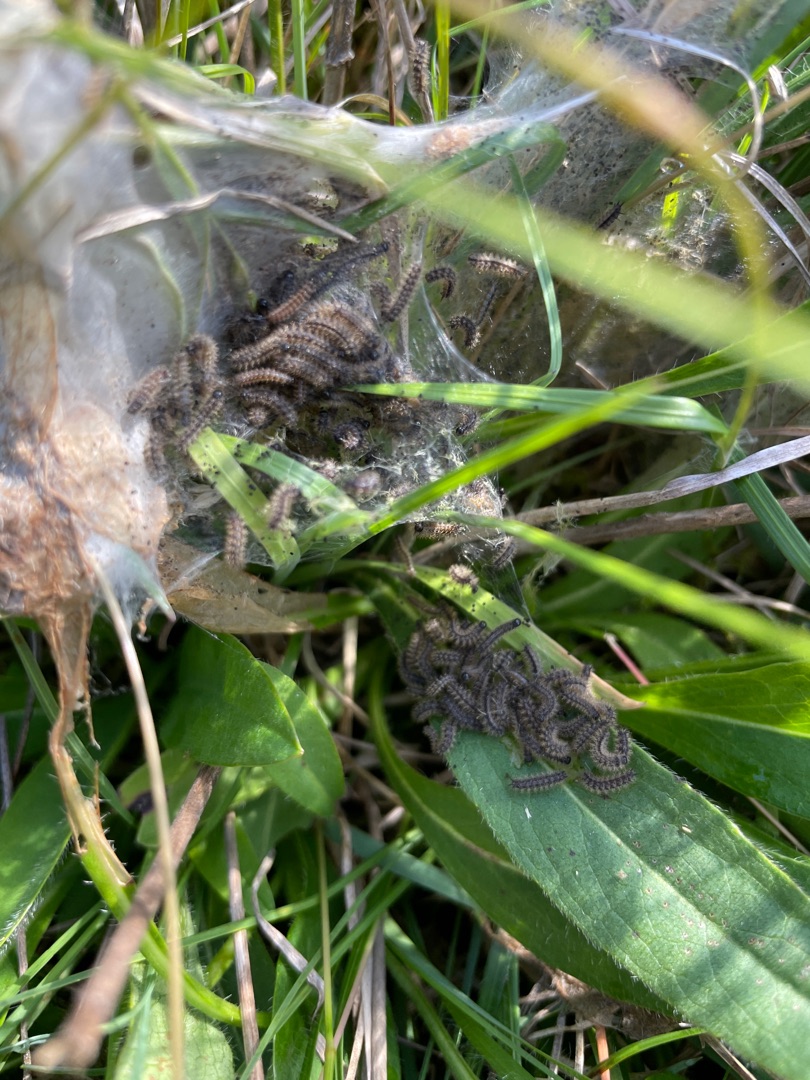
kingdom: Animalia
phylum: Arthropoda
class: Insecta
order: Lepidoptera
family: Nymphalidae
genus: Euphydryas
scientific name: Euphydryas aurinia
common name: Hedepletvinge
